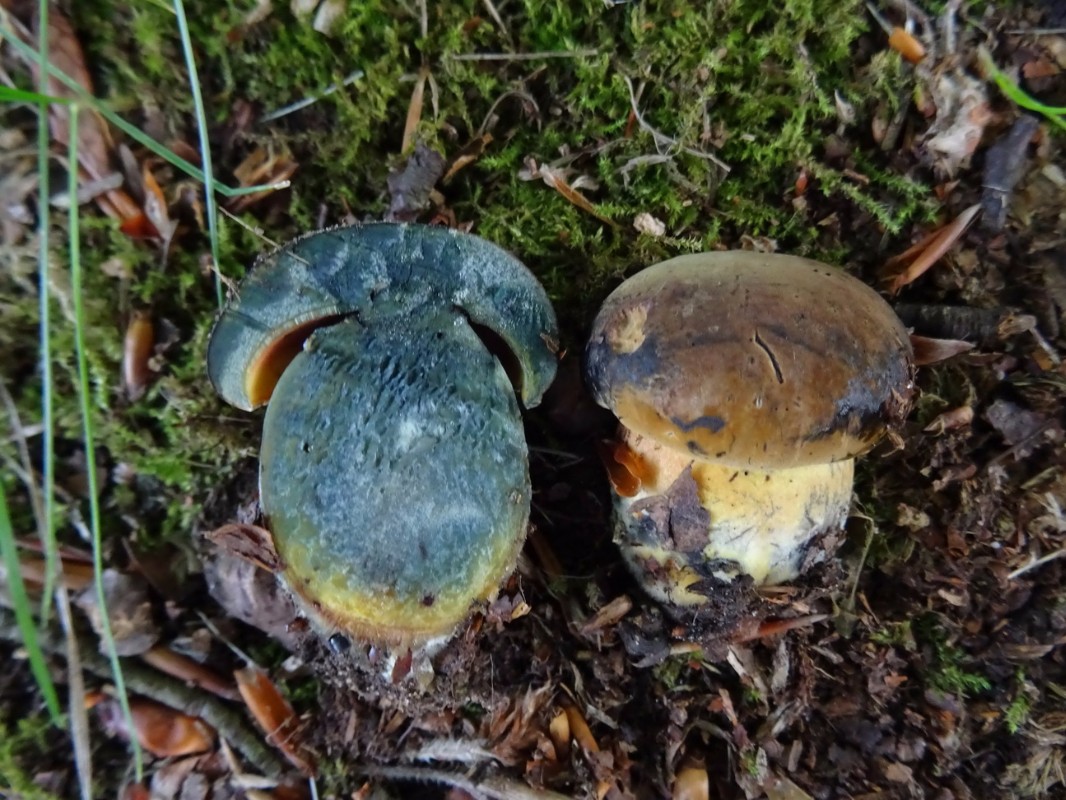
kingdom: Fungi
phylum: Basidiomycota
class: Agaricomycetes
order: Boletales
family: Boletaceae
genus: Cyanoboletus
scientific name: Cyanoboletus pulverulentus
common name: sortblånende rørhat
